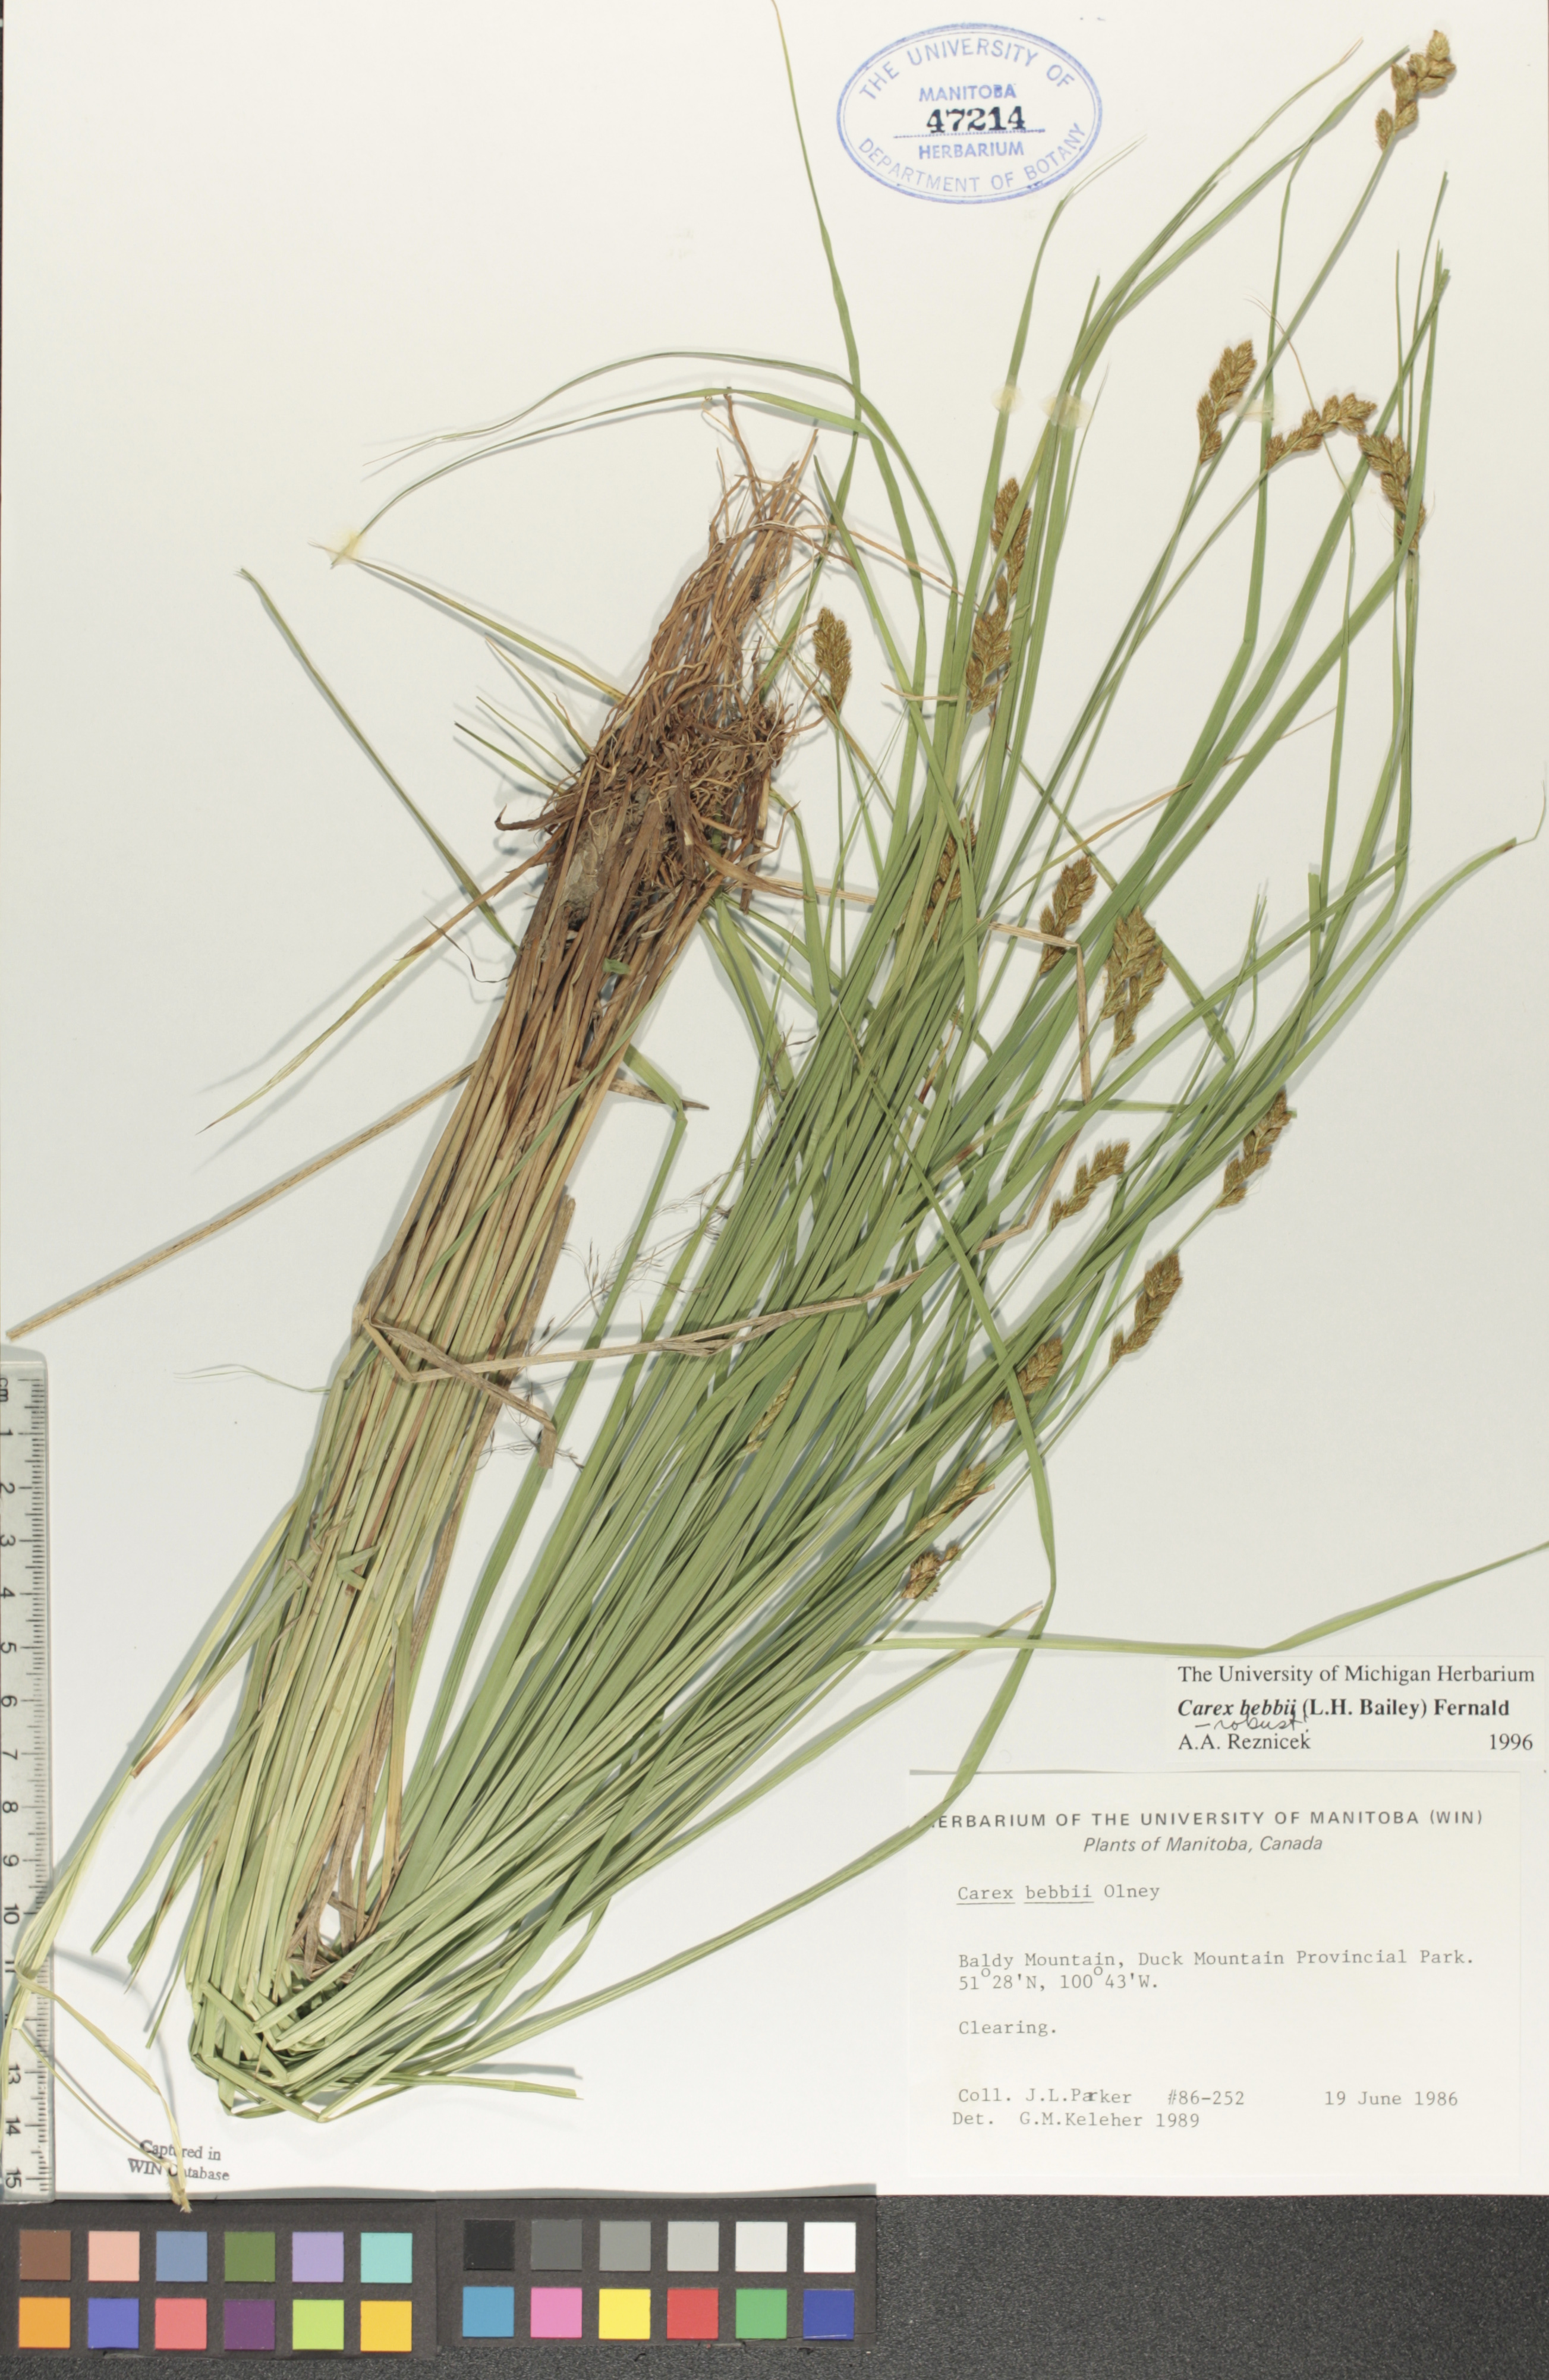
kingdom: Plantae
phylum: Tracheophyta
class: Liliopsida
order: Poales
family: Cyperaceae
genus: Carex
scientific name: Carex bebbii
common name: Bebb's sedge
